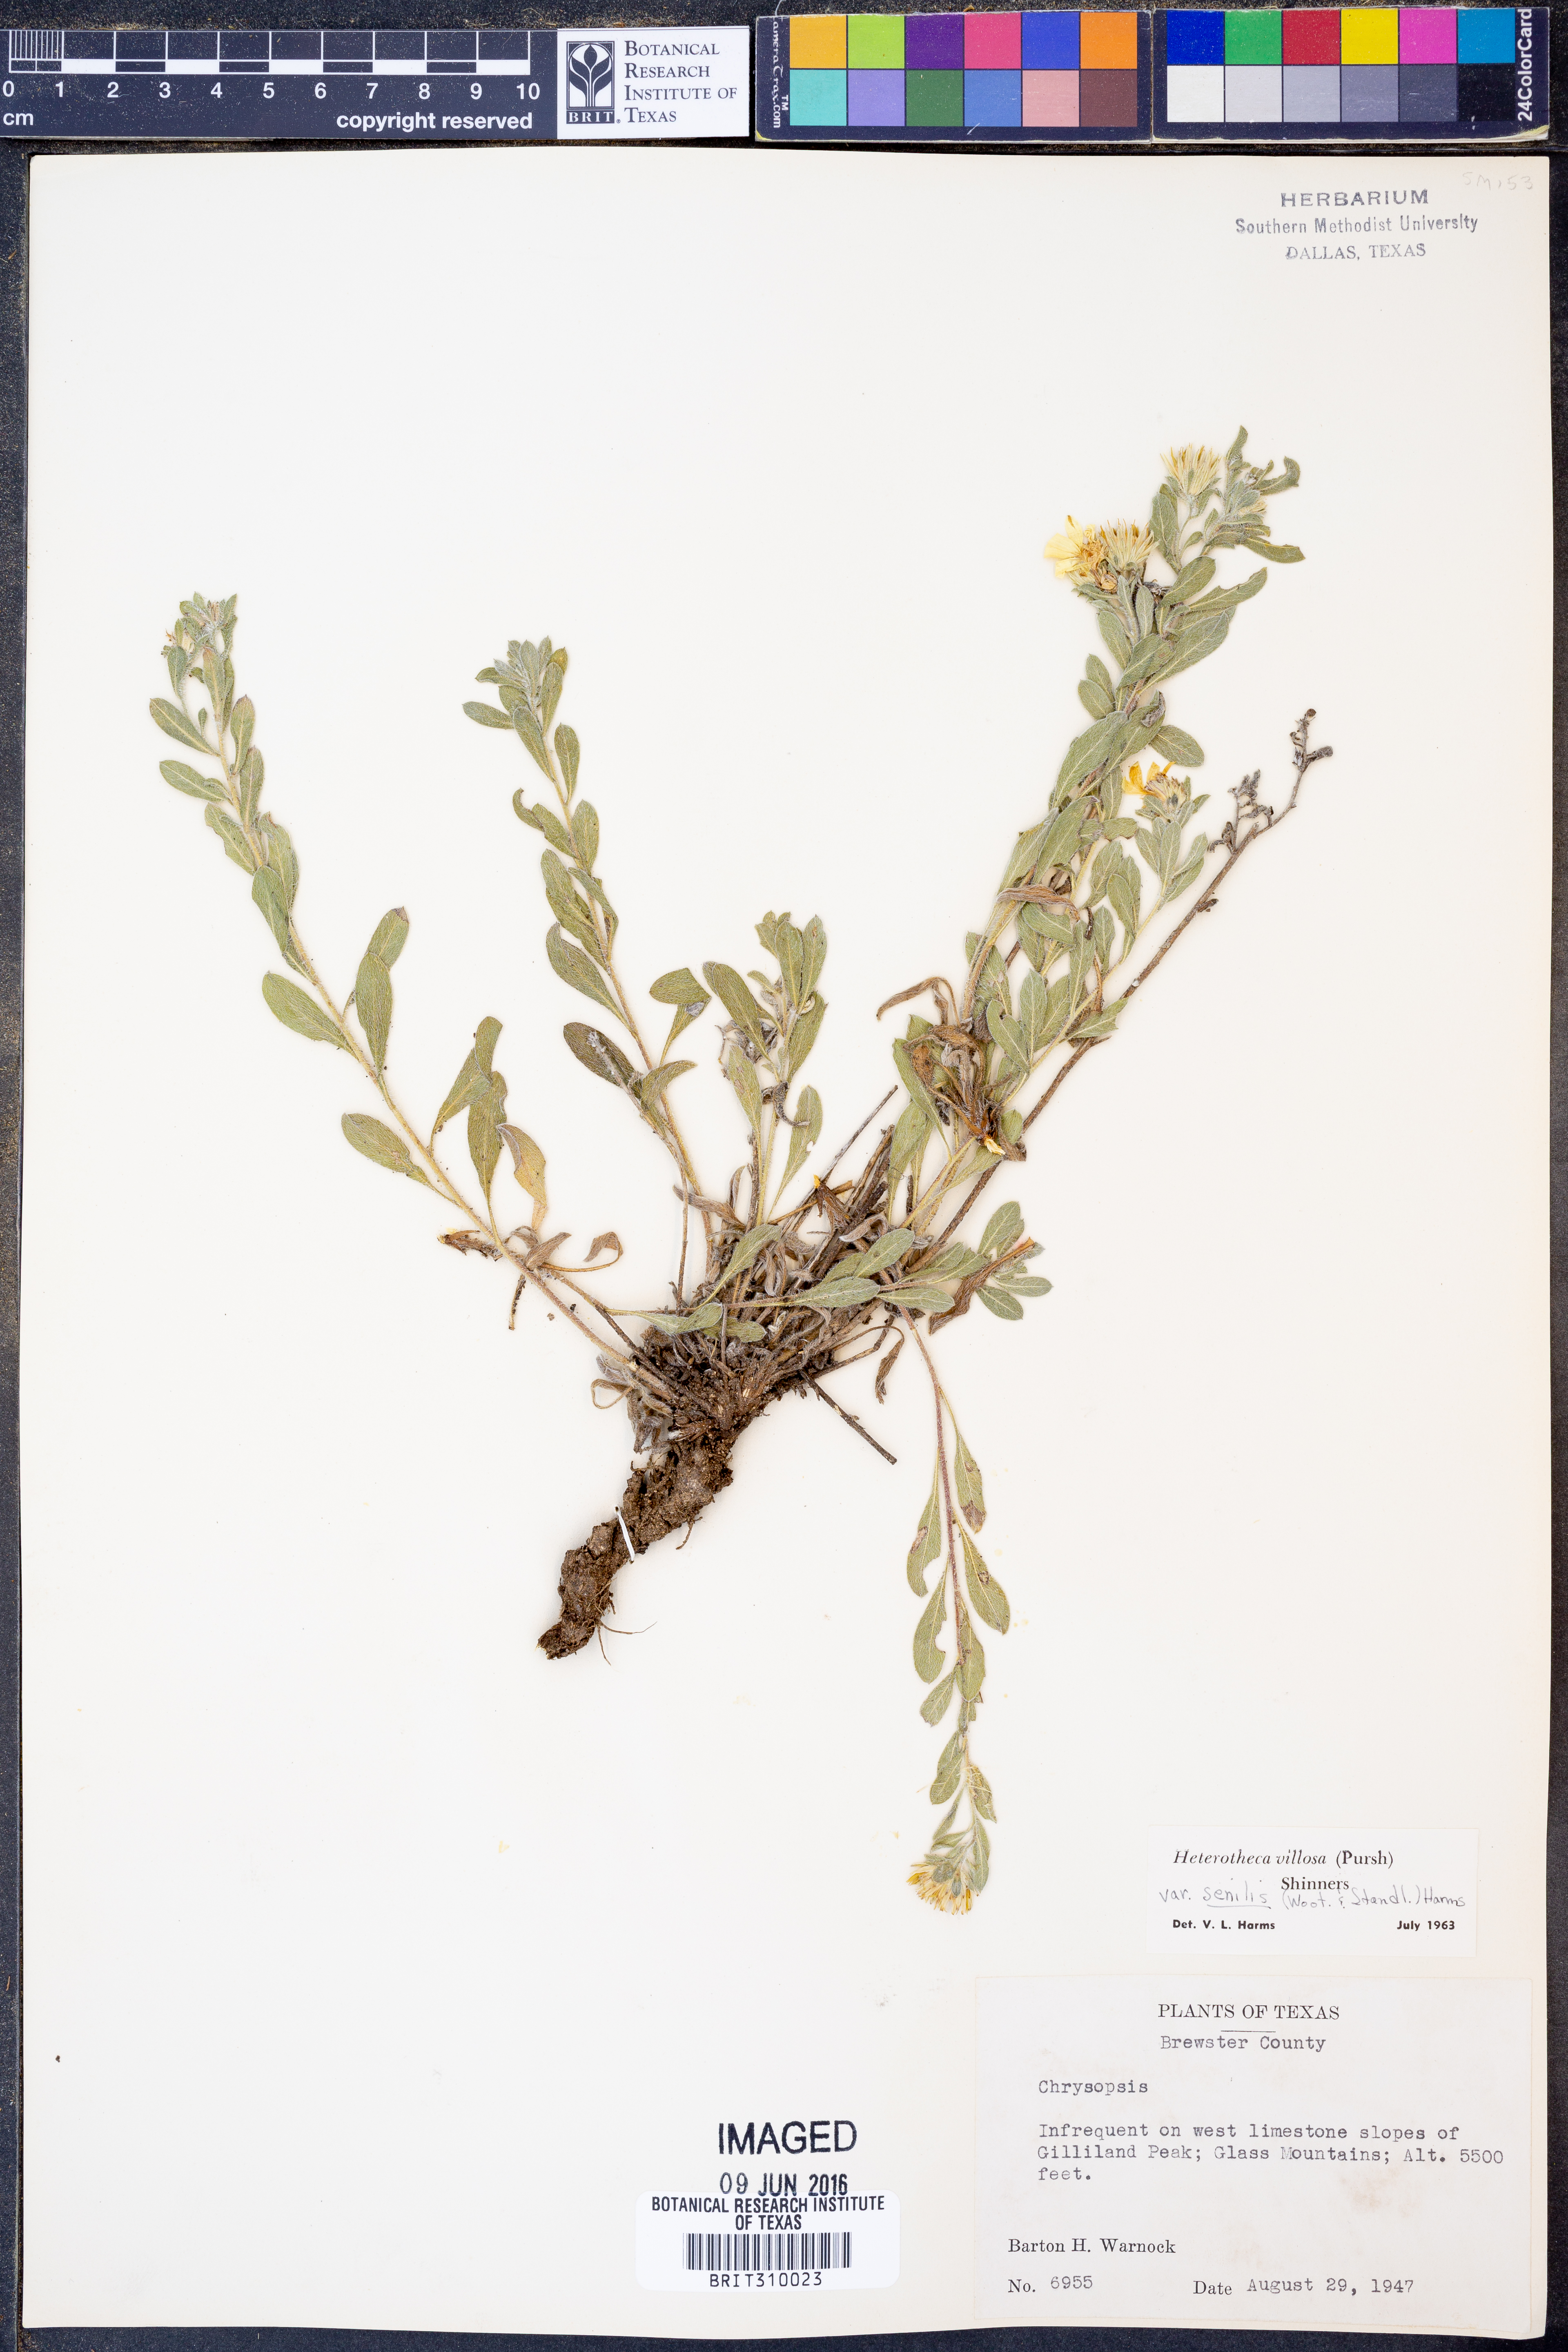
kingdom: Plantae
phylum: Tracheophyta
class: Magnoliopsida
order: Asterales
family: Asteraceae
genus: Heterotheca
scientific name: Heterotheca villosa
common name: Hairy false goldenaster
